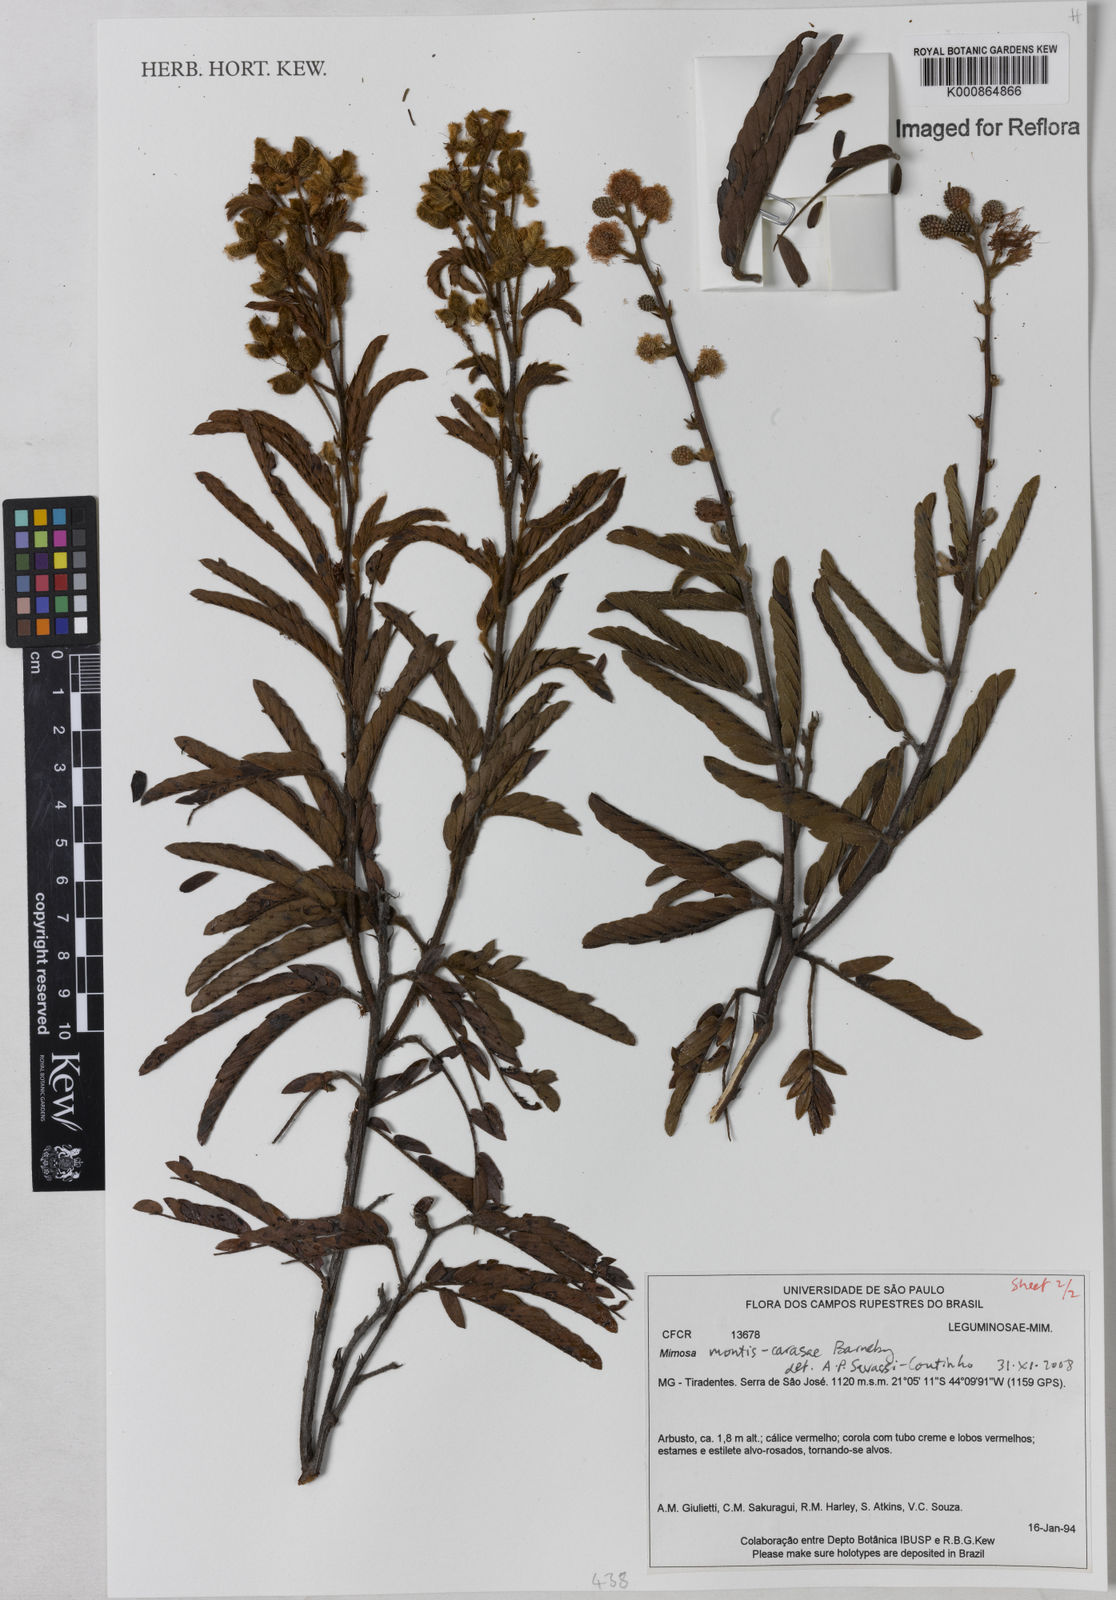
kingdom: Plantae
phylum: Tracheophyta
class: Magnoliopsida
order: Fabales
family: Fabaceae
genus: Mimosa
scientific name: Mimosa montis-carasae
